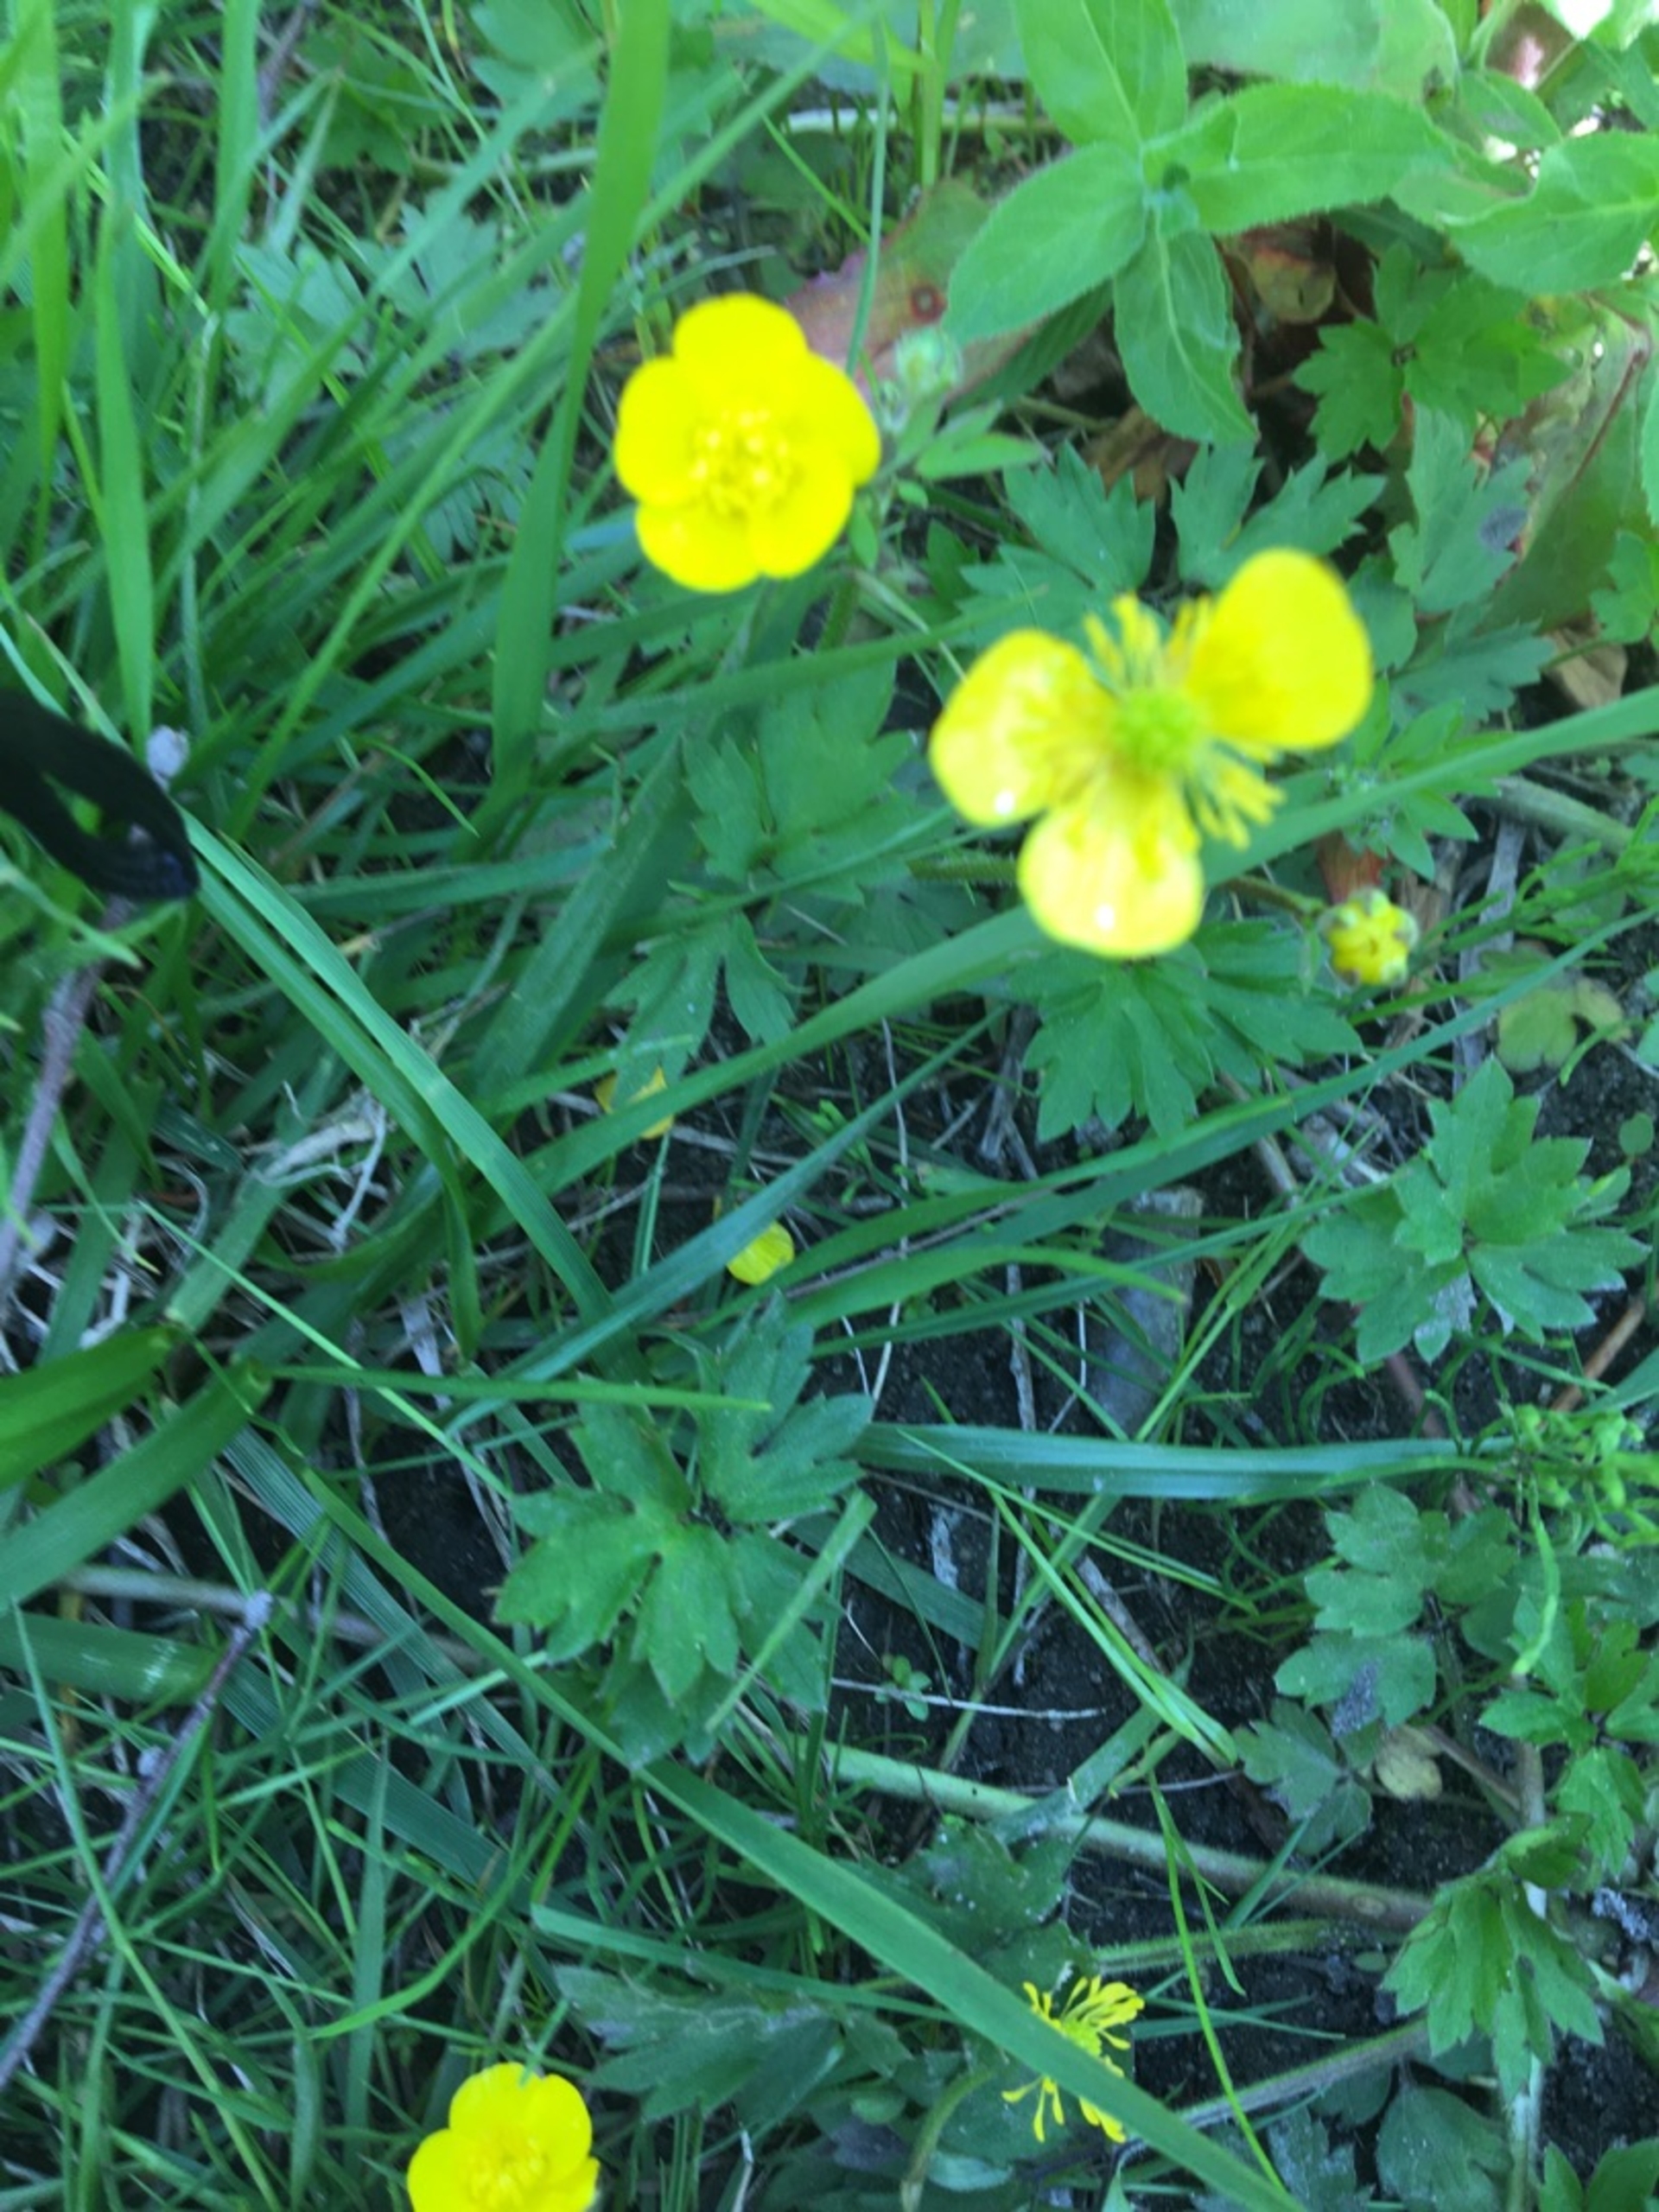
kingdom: Plantae
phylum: Tracheophyta
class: Magnoliopsida
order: Ranunculales
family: Ranunculaceae
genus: Ranunculus
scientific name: Ranunculus repens
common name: Lav ranunkel
